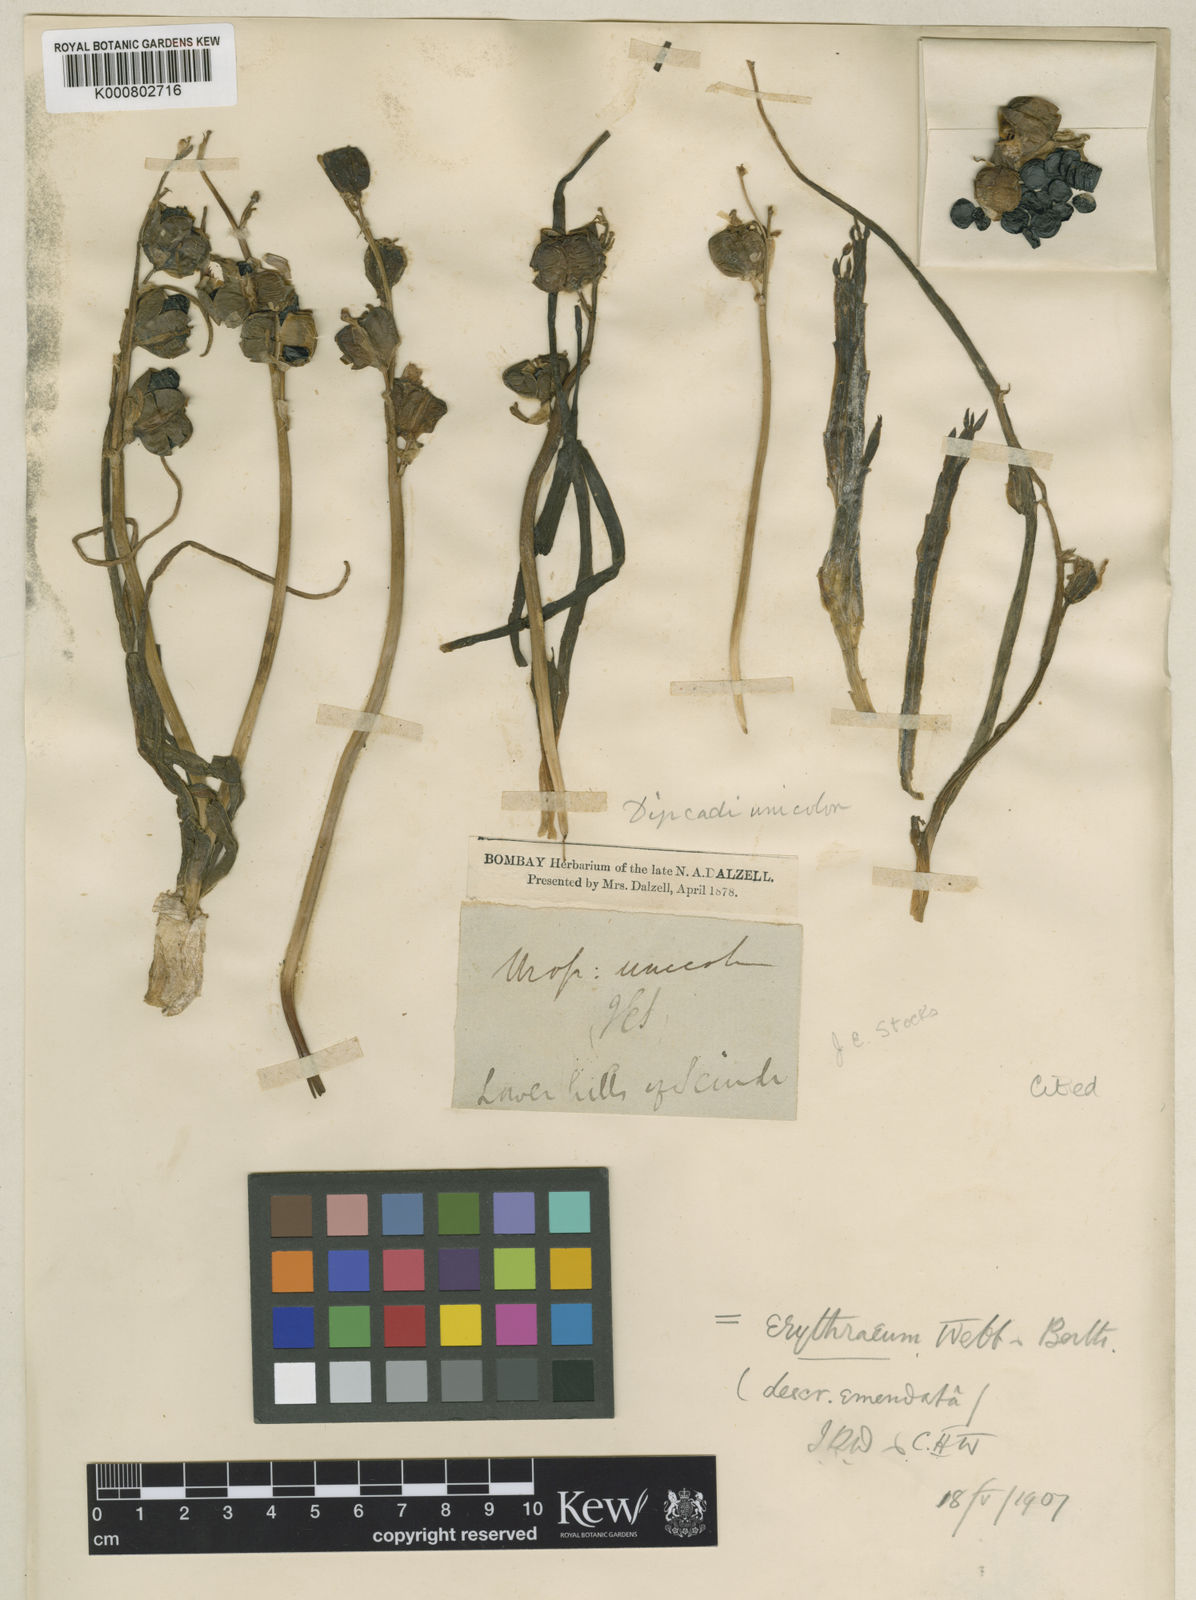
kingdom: Plantae
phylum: Tracheophyta
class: Liliopsida
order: Asparagales
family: Asparagaceae
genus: Dipcadi
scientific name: Dipcadi erythraeum
